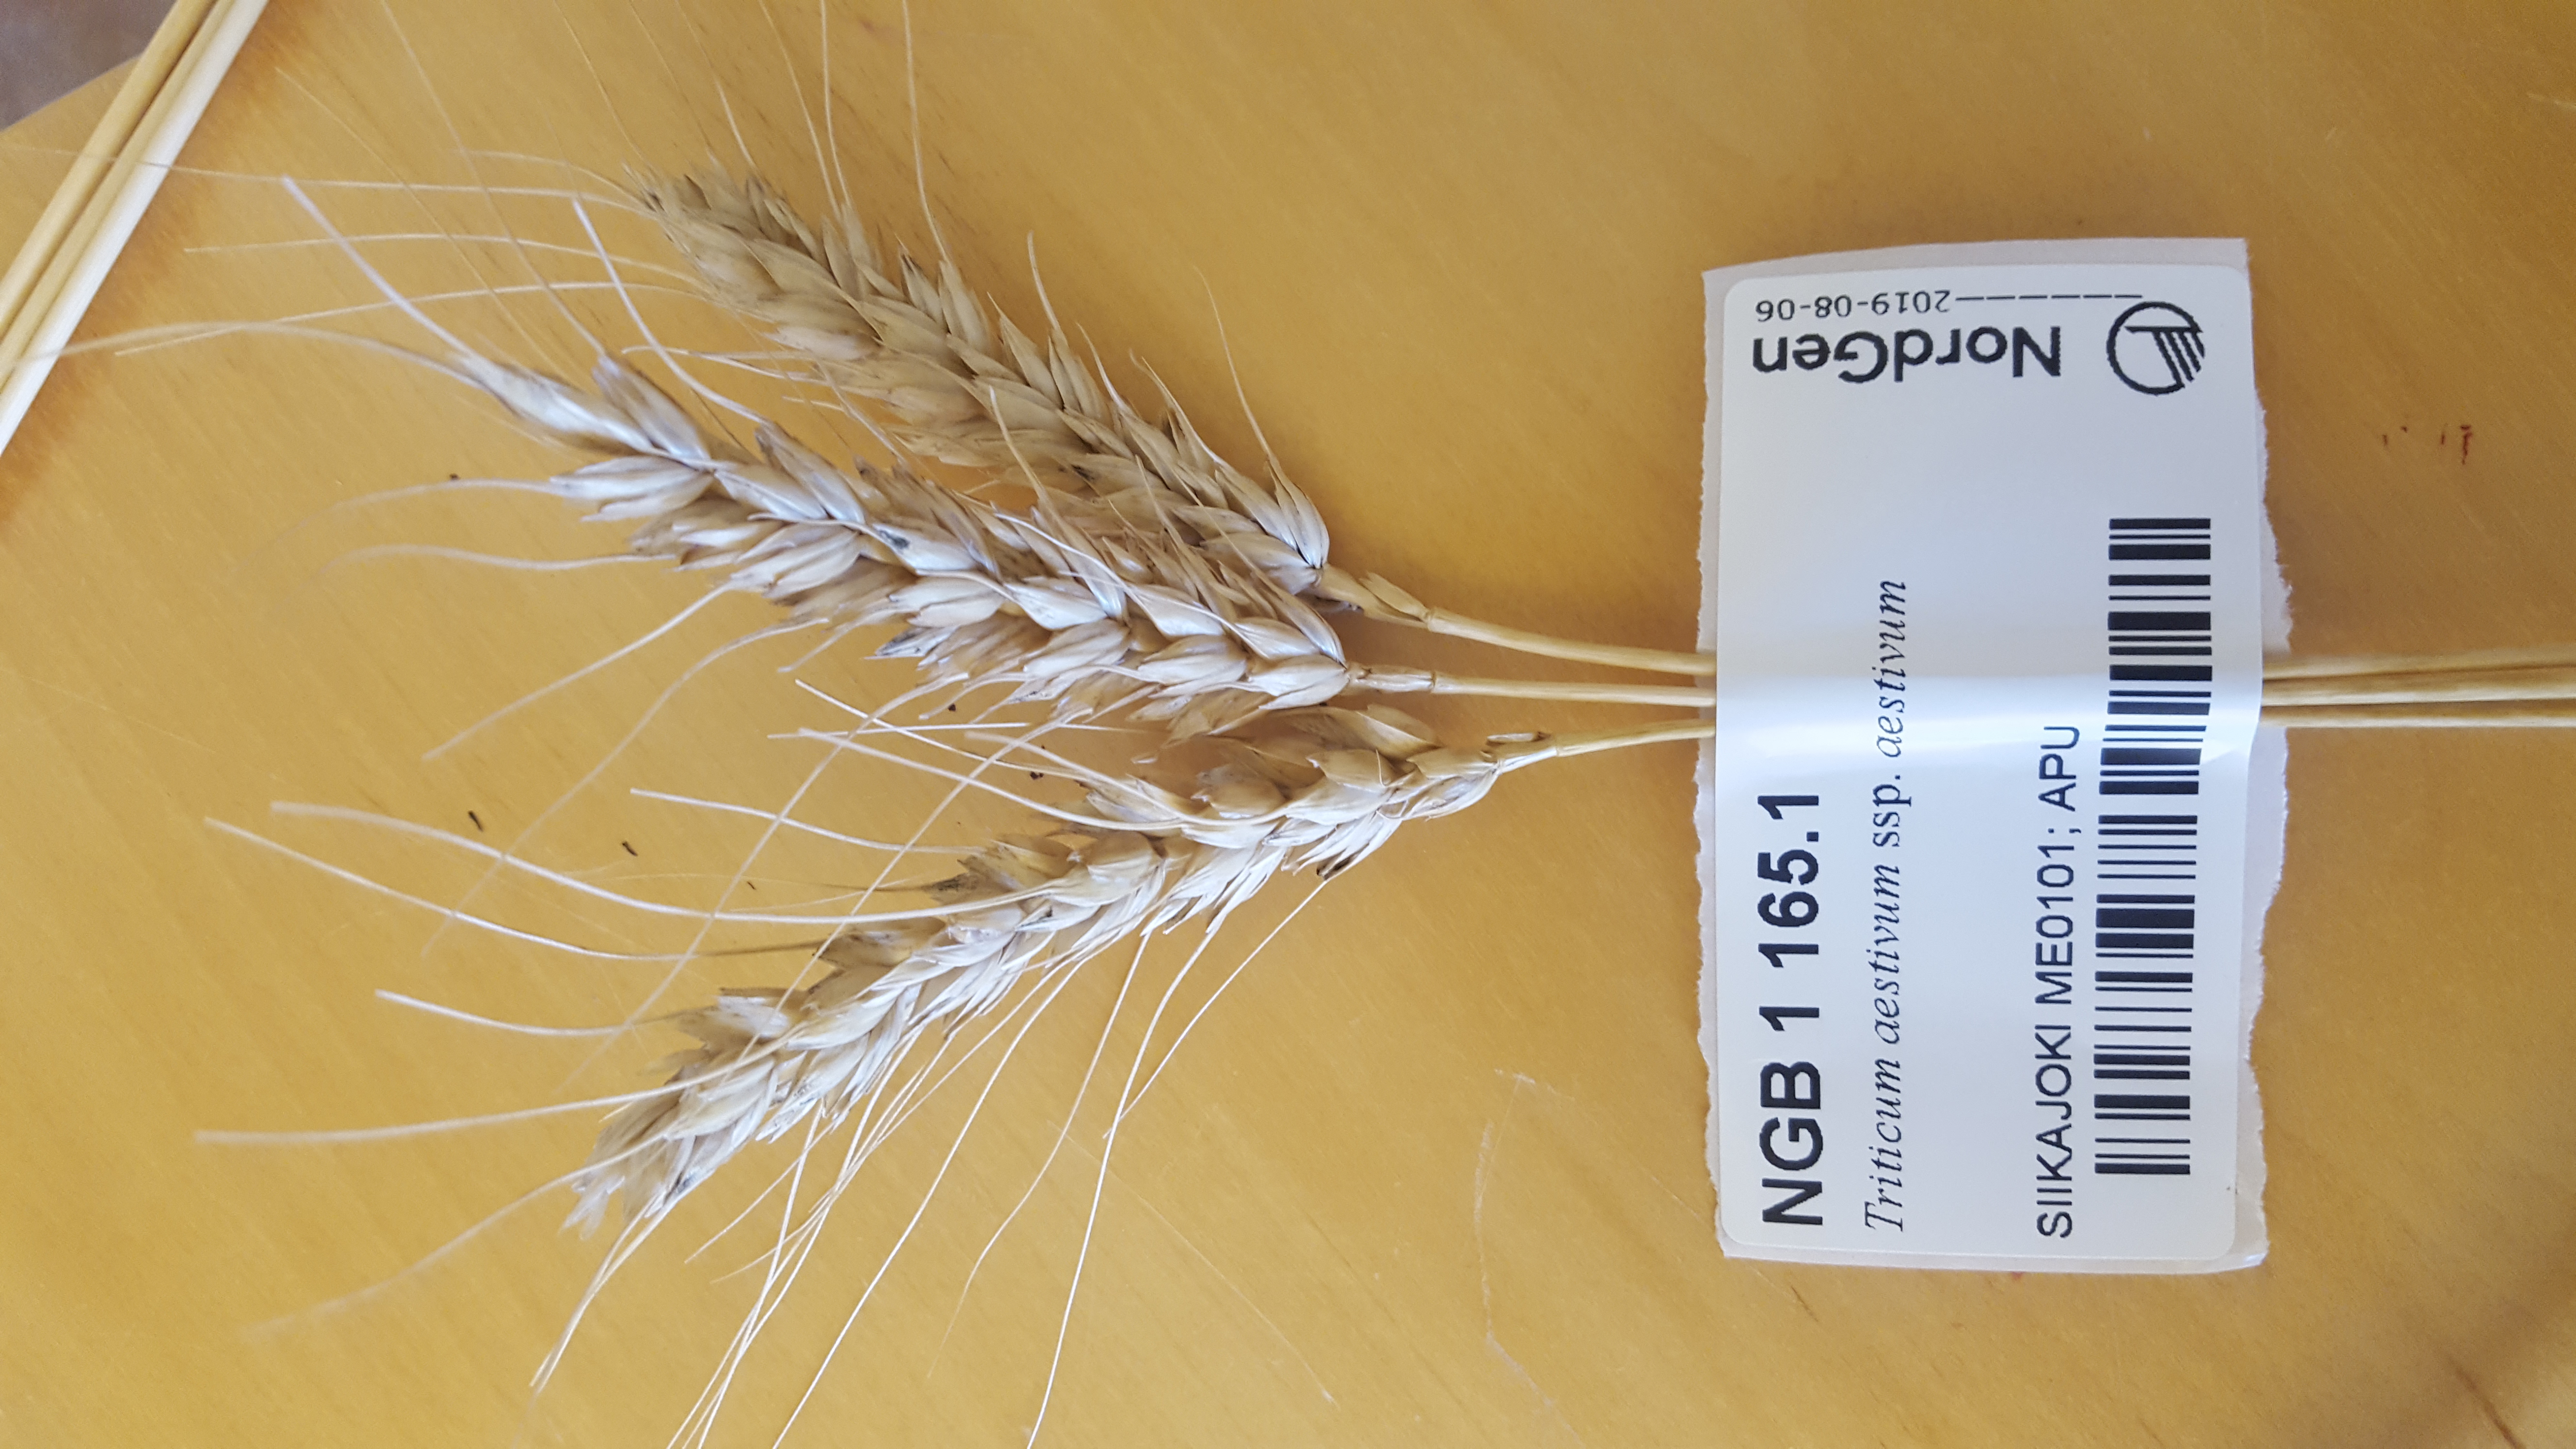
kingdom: Plantae
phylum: Tracheophyta
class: Liliopsida
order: Poales
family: Poaceae
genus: Triticum
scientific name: Triticum aestivum
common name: Common wheat
